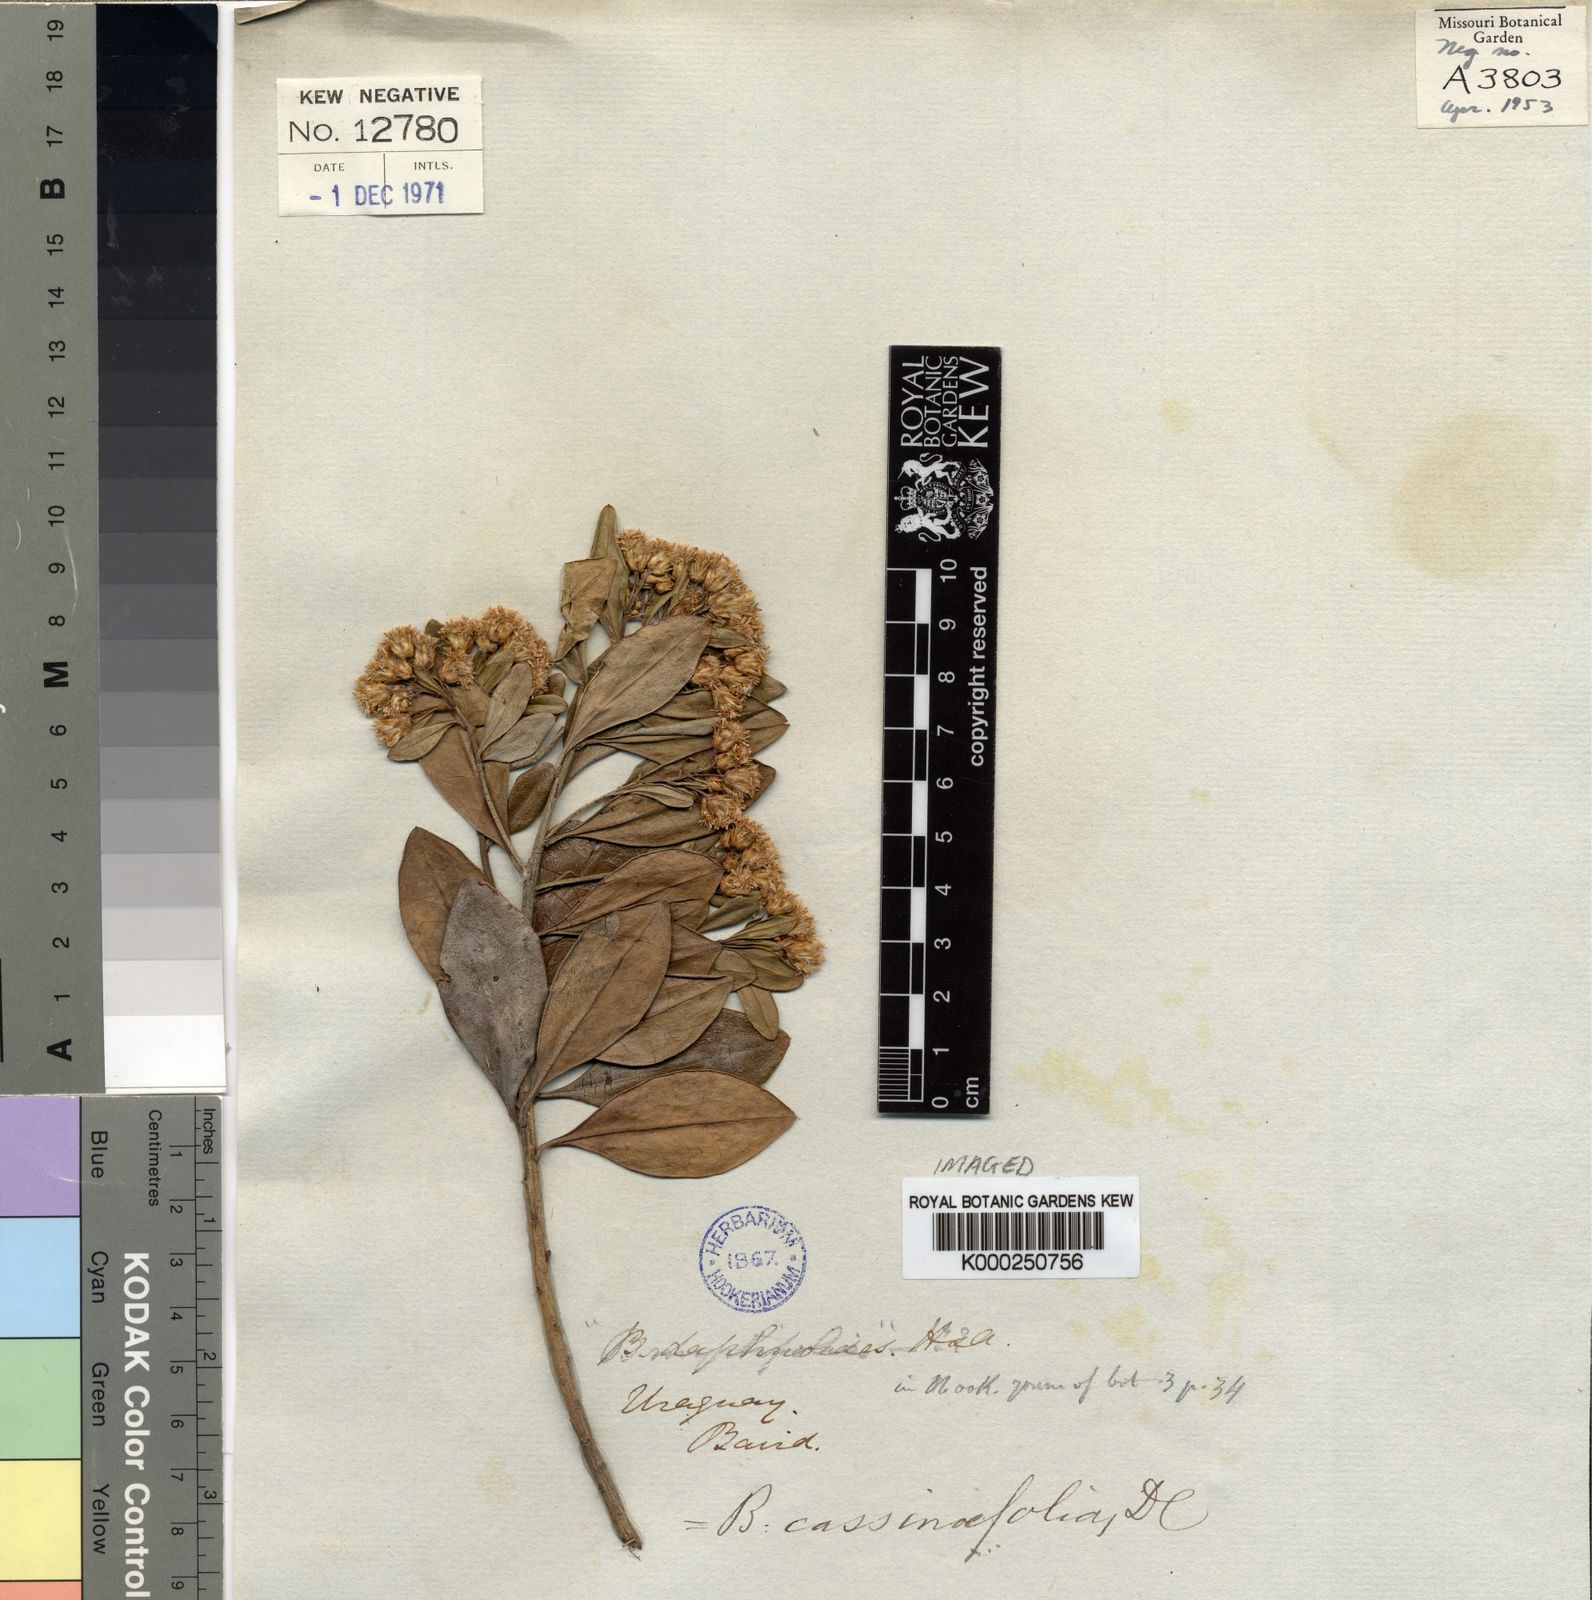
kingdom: Plantae
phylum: Tracheophyta
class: Magnoliopsida
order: Asterales
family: Asteraceae
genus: Baccharis
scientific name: Baccharis singularis
